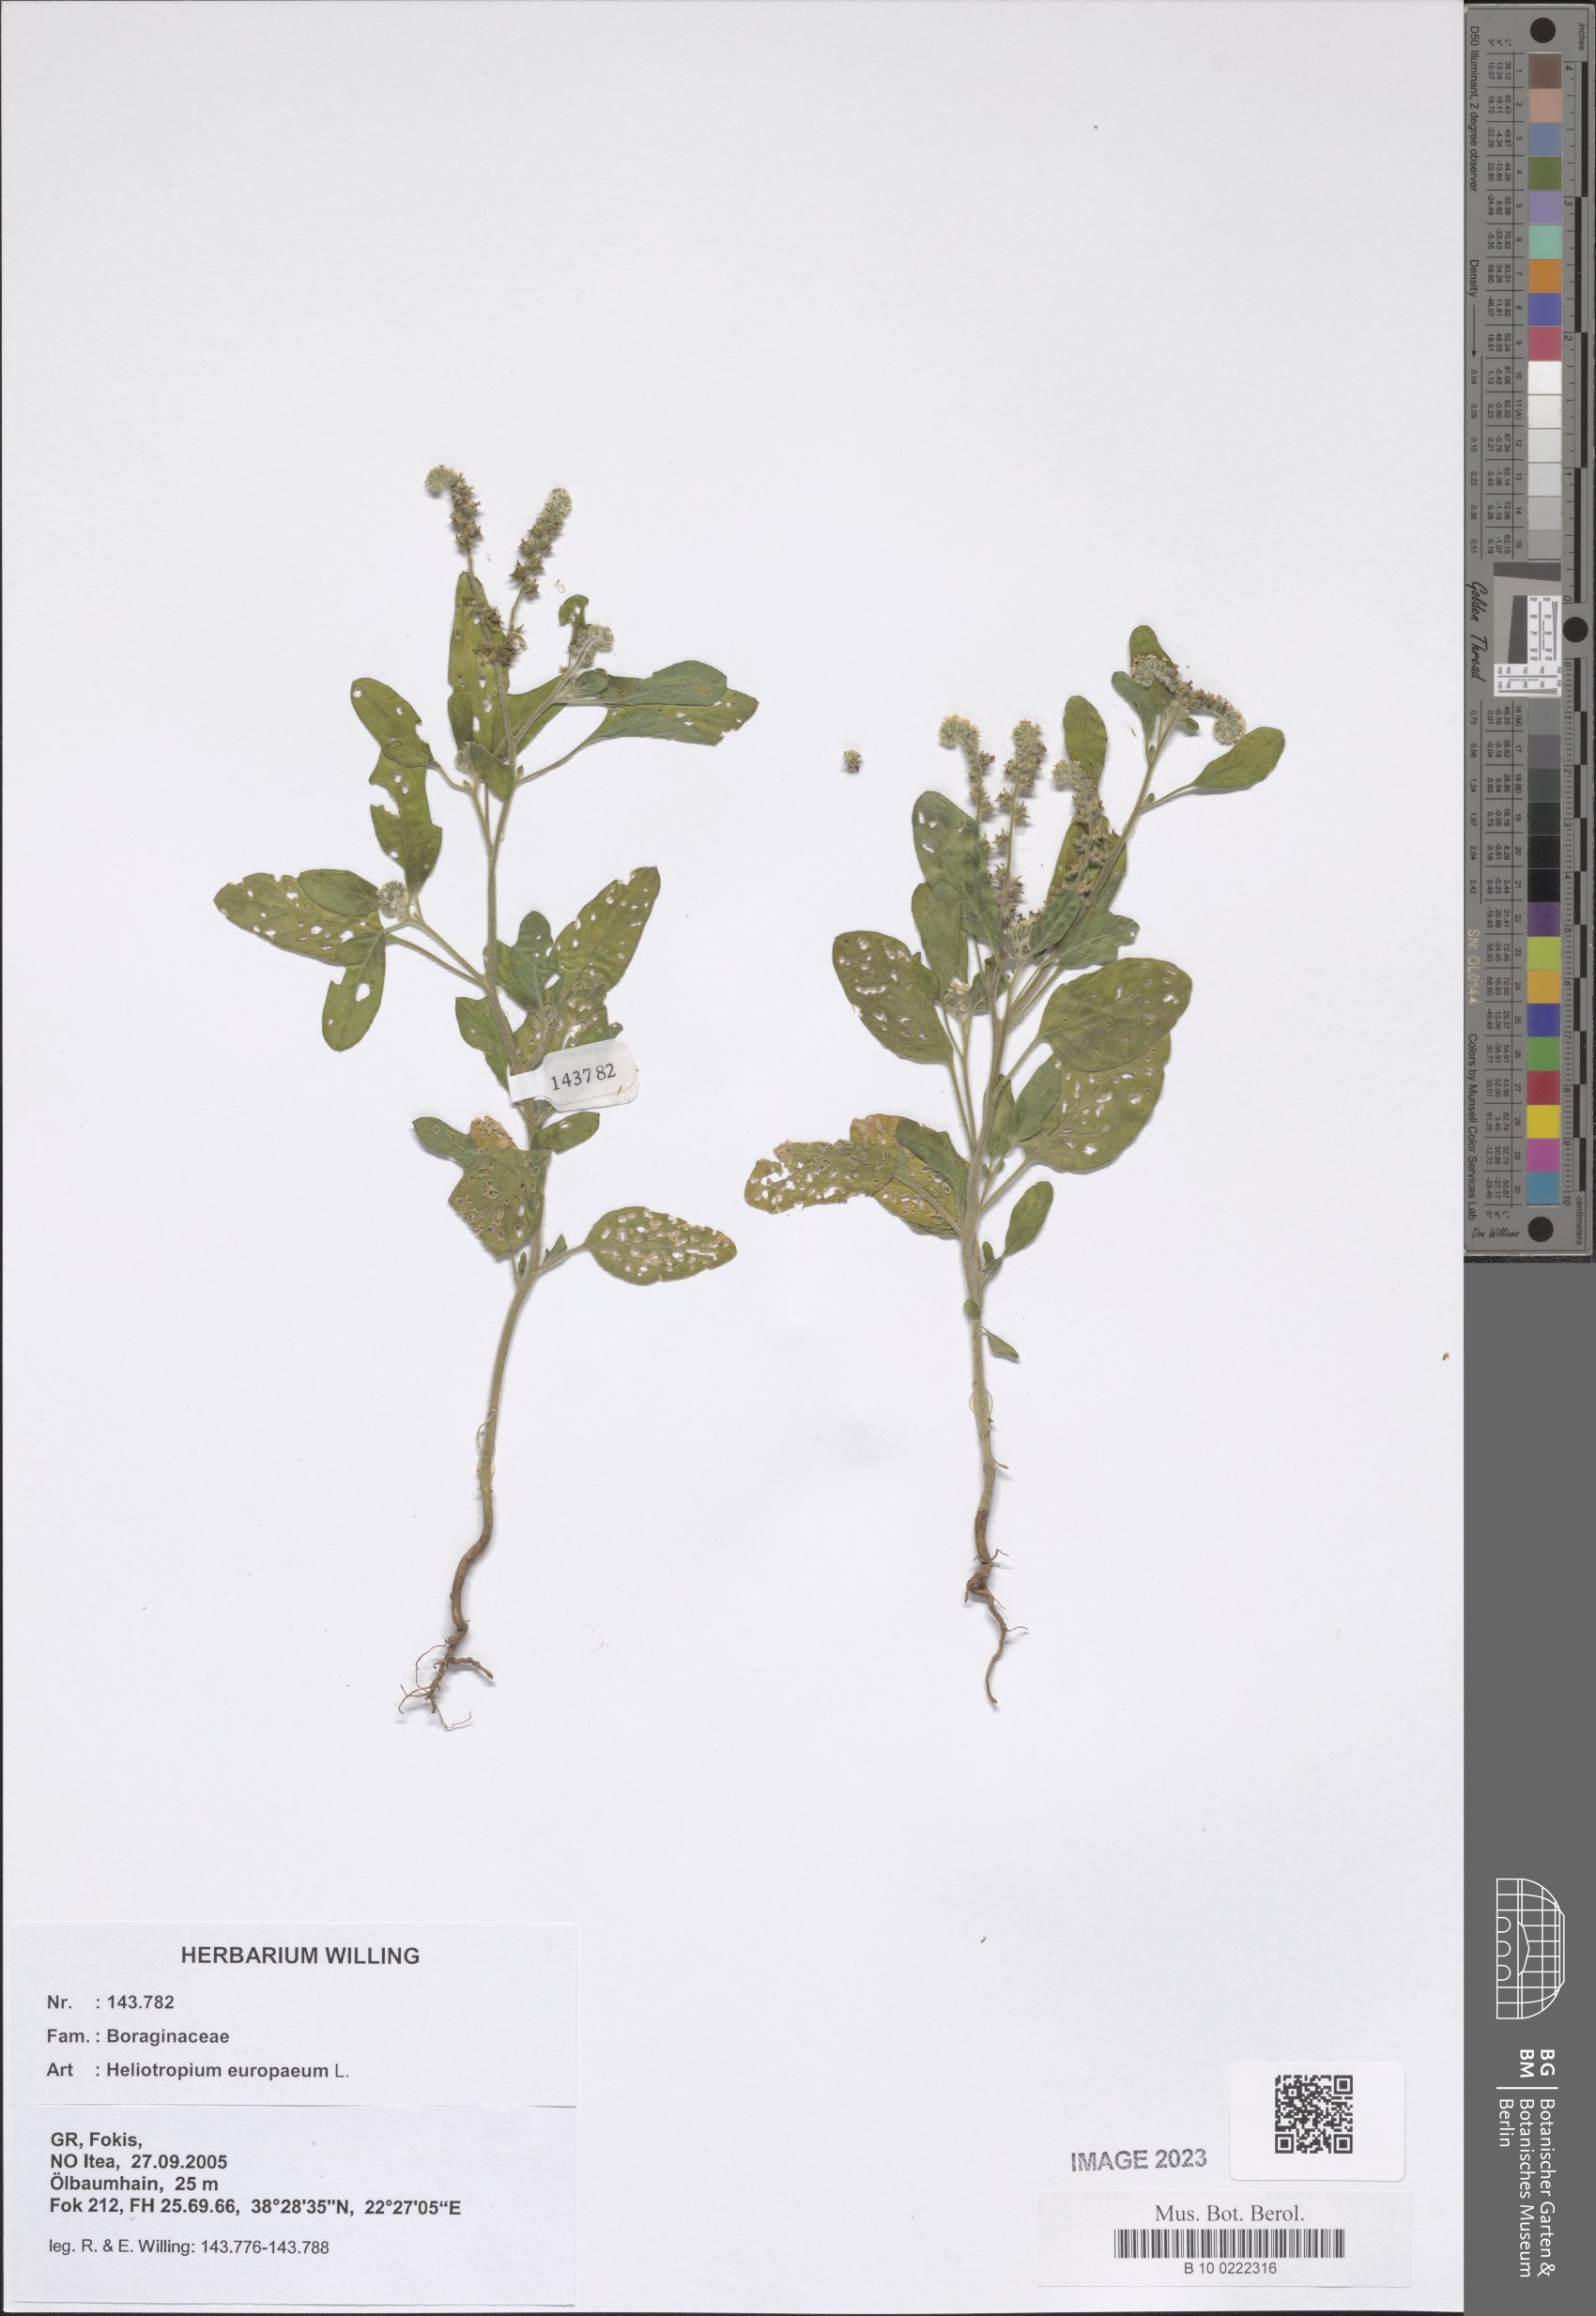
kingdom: Plantae
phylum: Tracheophyta
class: Magnoliopsida
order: Boraginales
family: Heliotropiaceae
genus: Heliotropium
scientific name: Heliotropium europaeum
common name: European heliotrope
